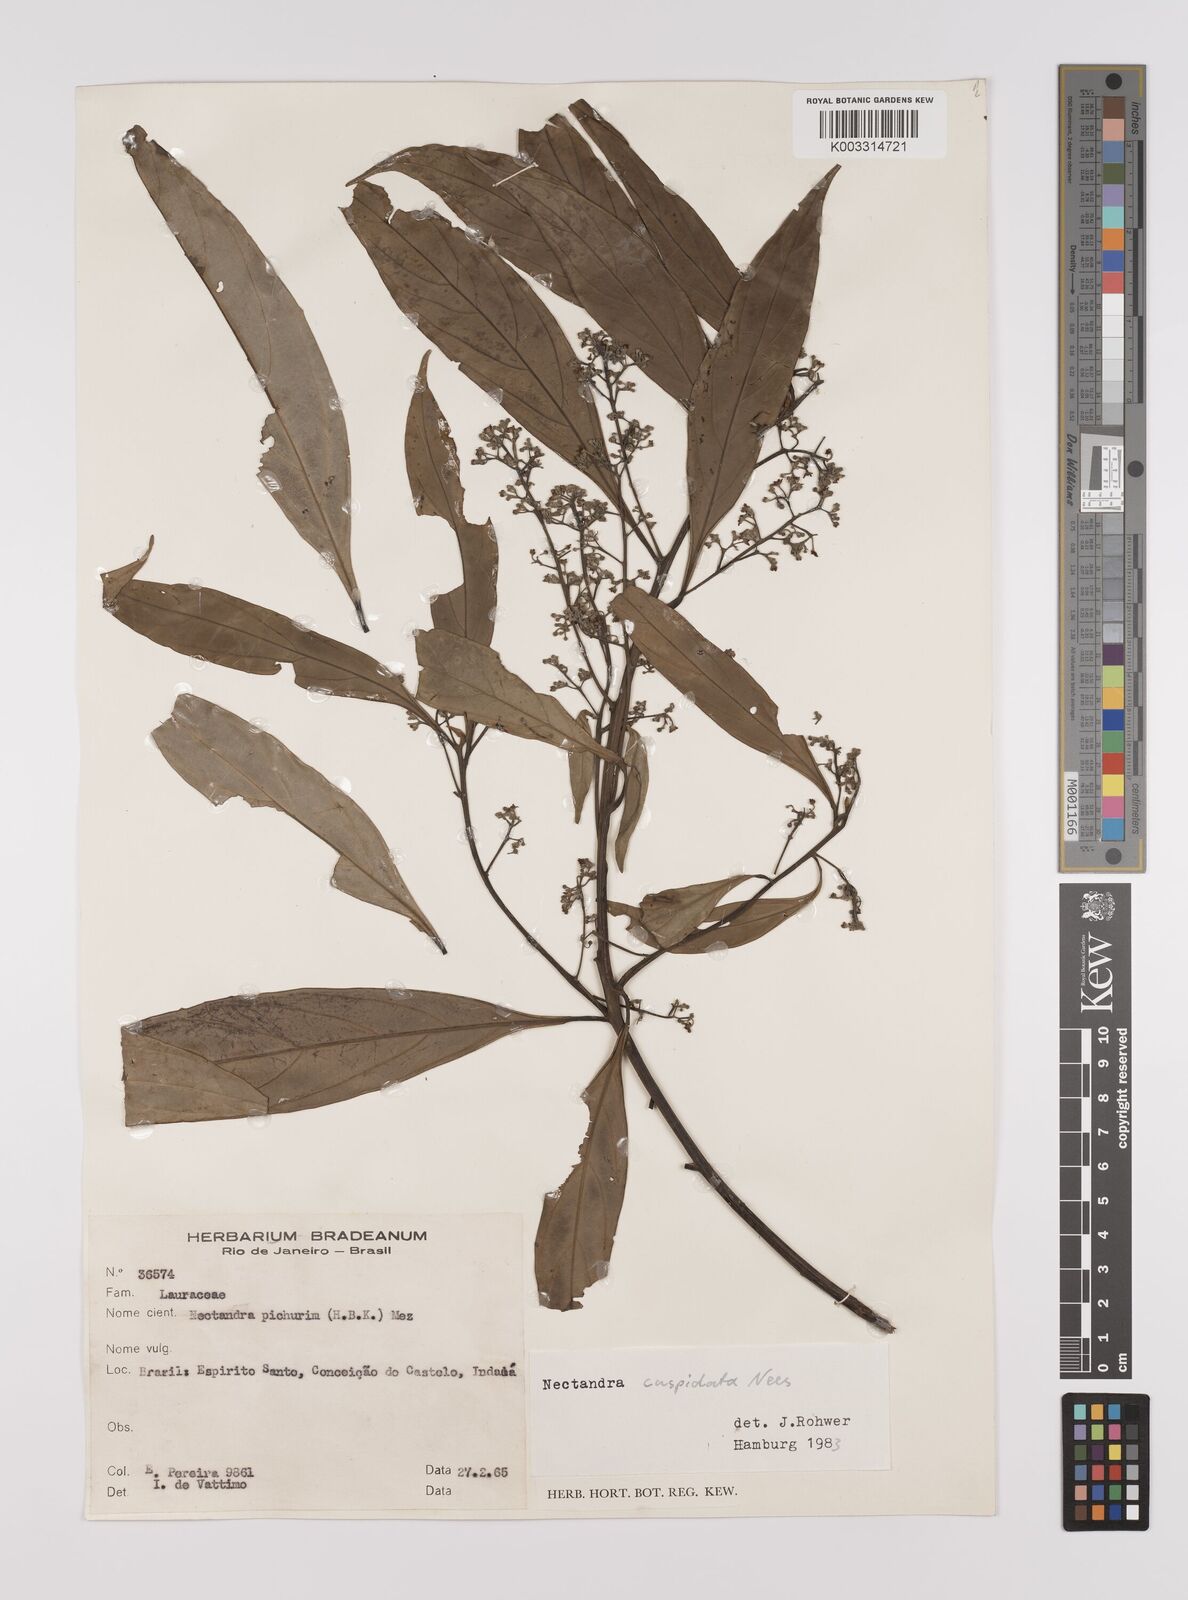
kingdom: Plantae
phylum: Tracheophyta
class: Magnoliopsida
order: Laurales
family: Lauraceae
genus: Nectandra
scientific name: Nectandra cuspidata
